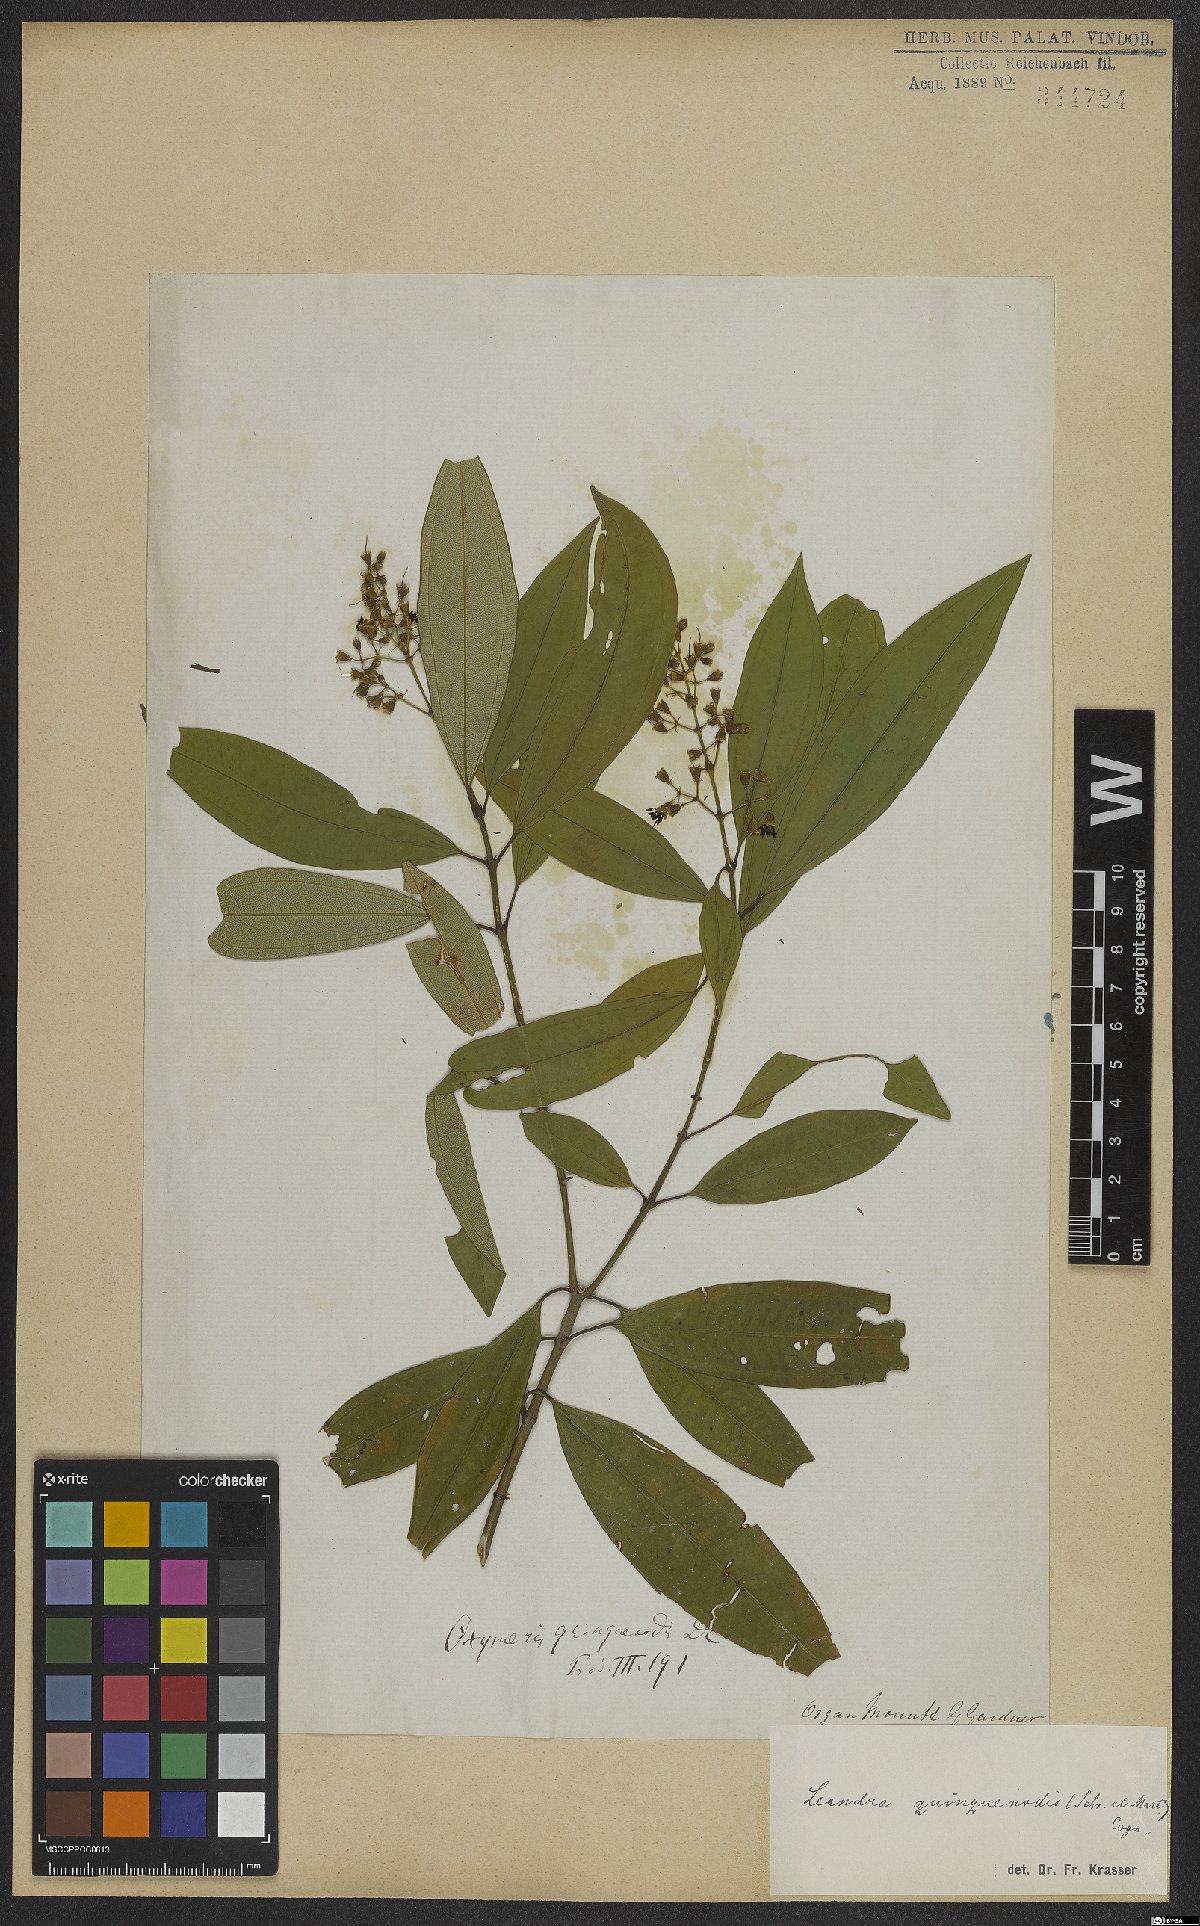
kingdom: Plantae
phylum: Tracheophyta
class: Magnoliopsida
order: Myrtales
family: Melastomataceae
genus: Miconia
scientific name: Miconia quinquenodis
